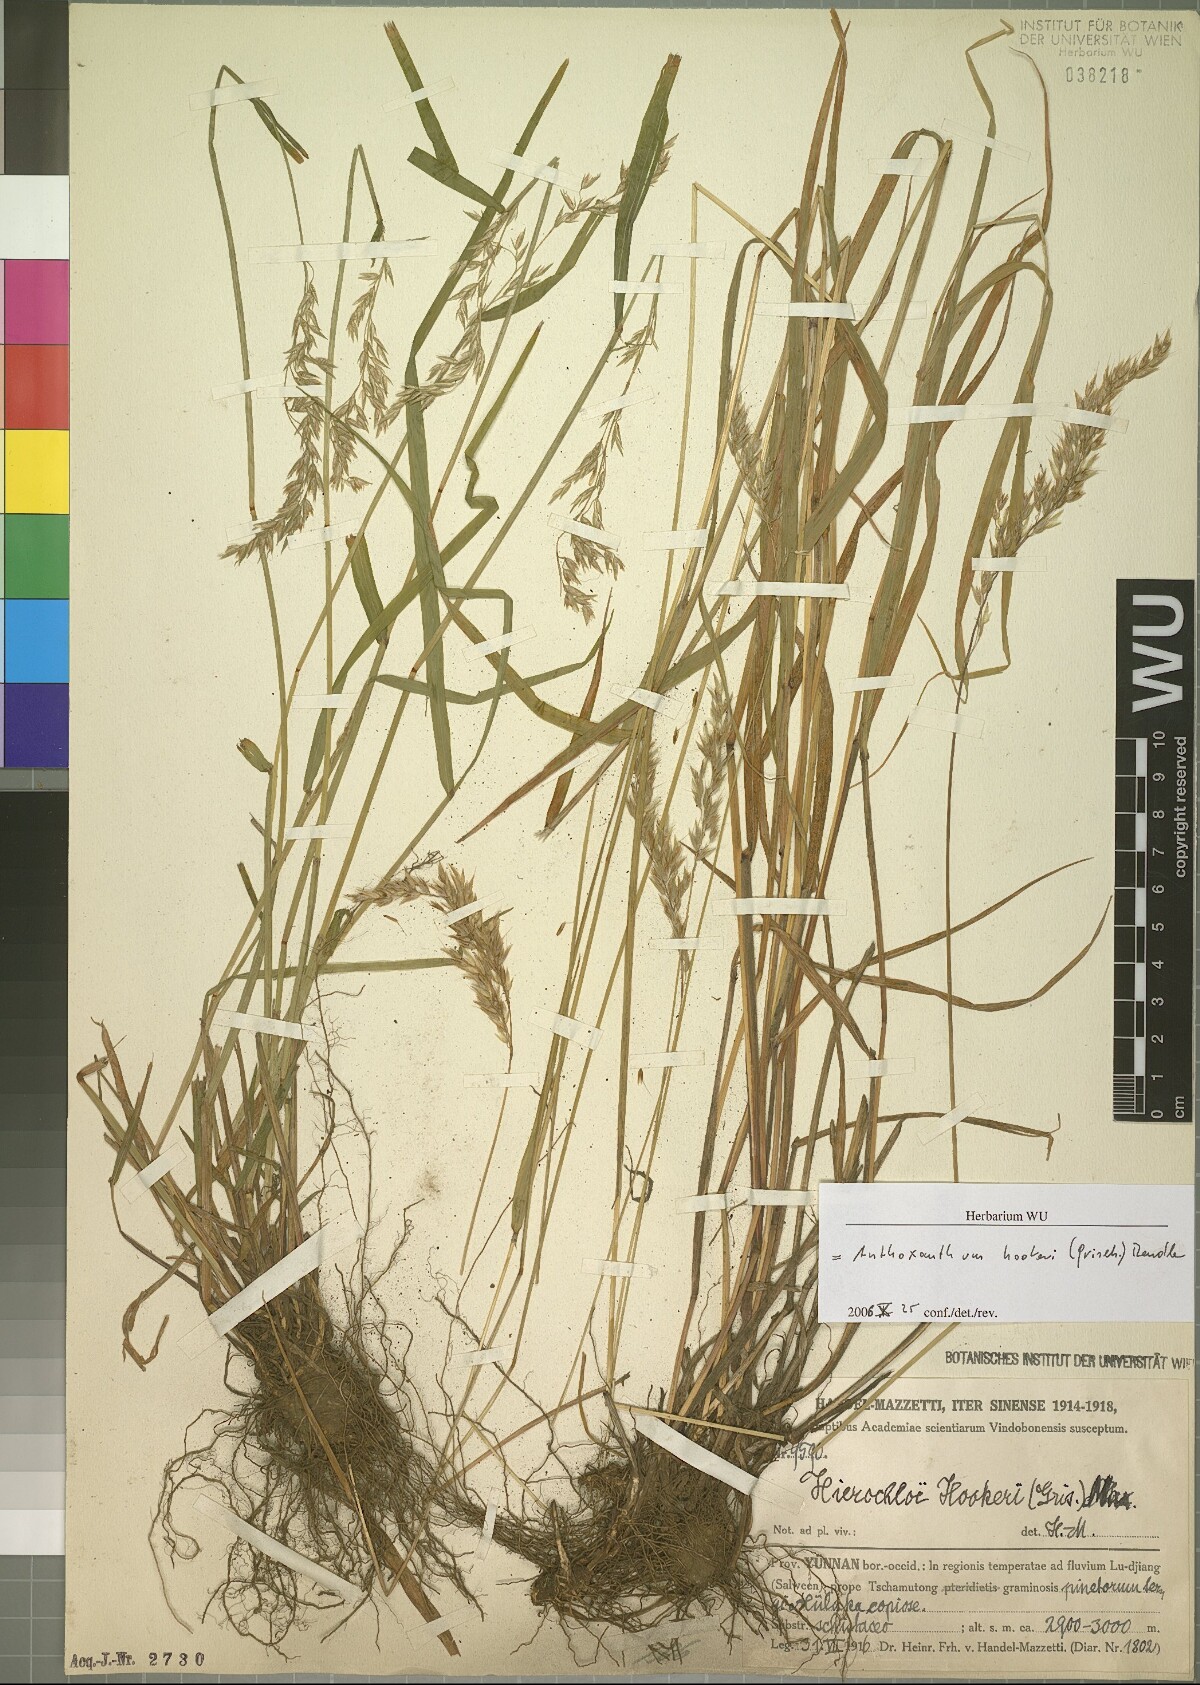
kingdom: Plantae
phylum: Tracheophyta
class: Liliopsida
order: Poales
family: Poaceae
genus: Anthoxanthum
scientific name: Anthoxanthum hookeri
